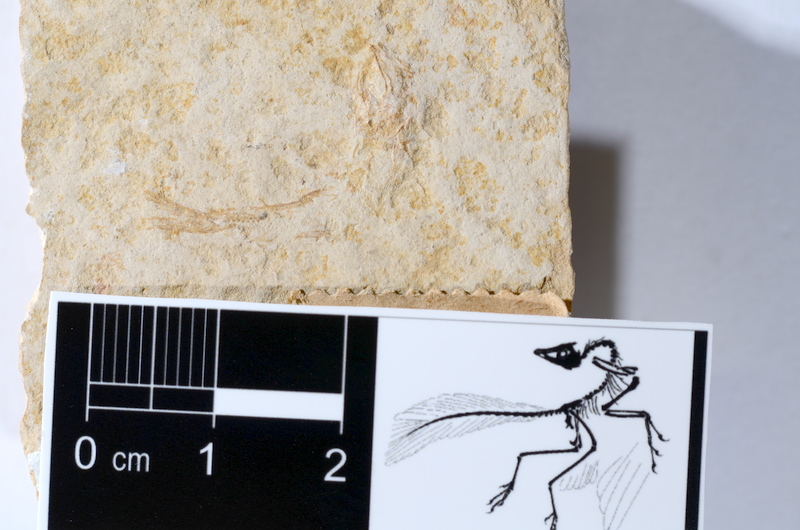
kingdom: Animalia
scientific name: Animalia
